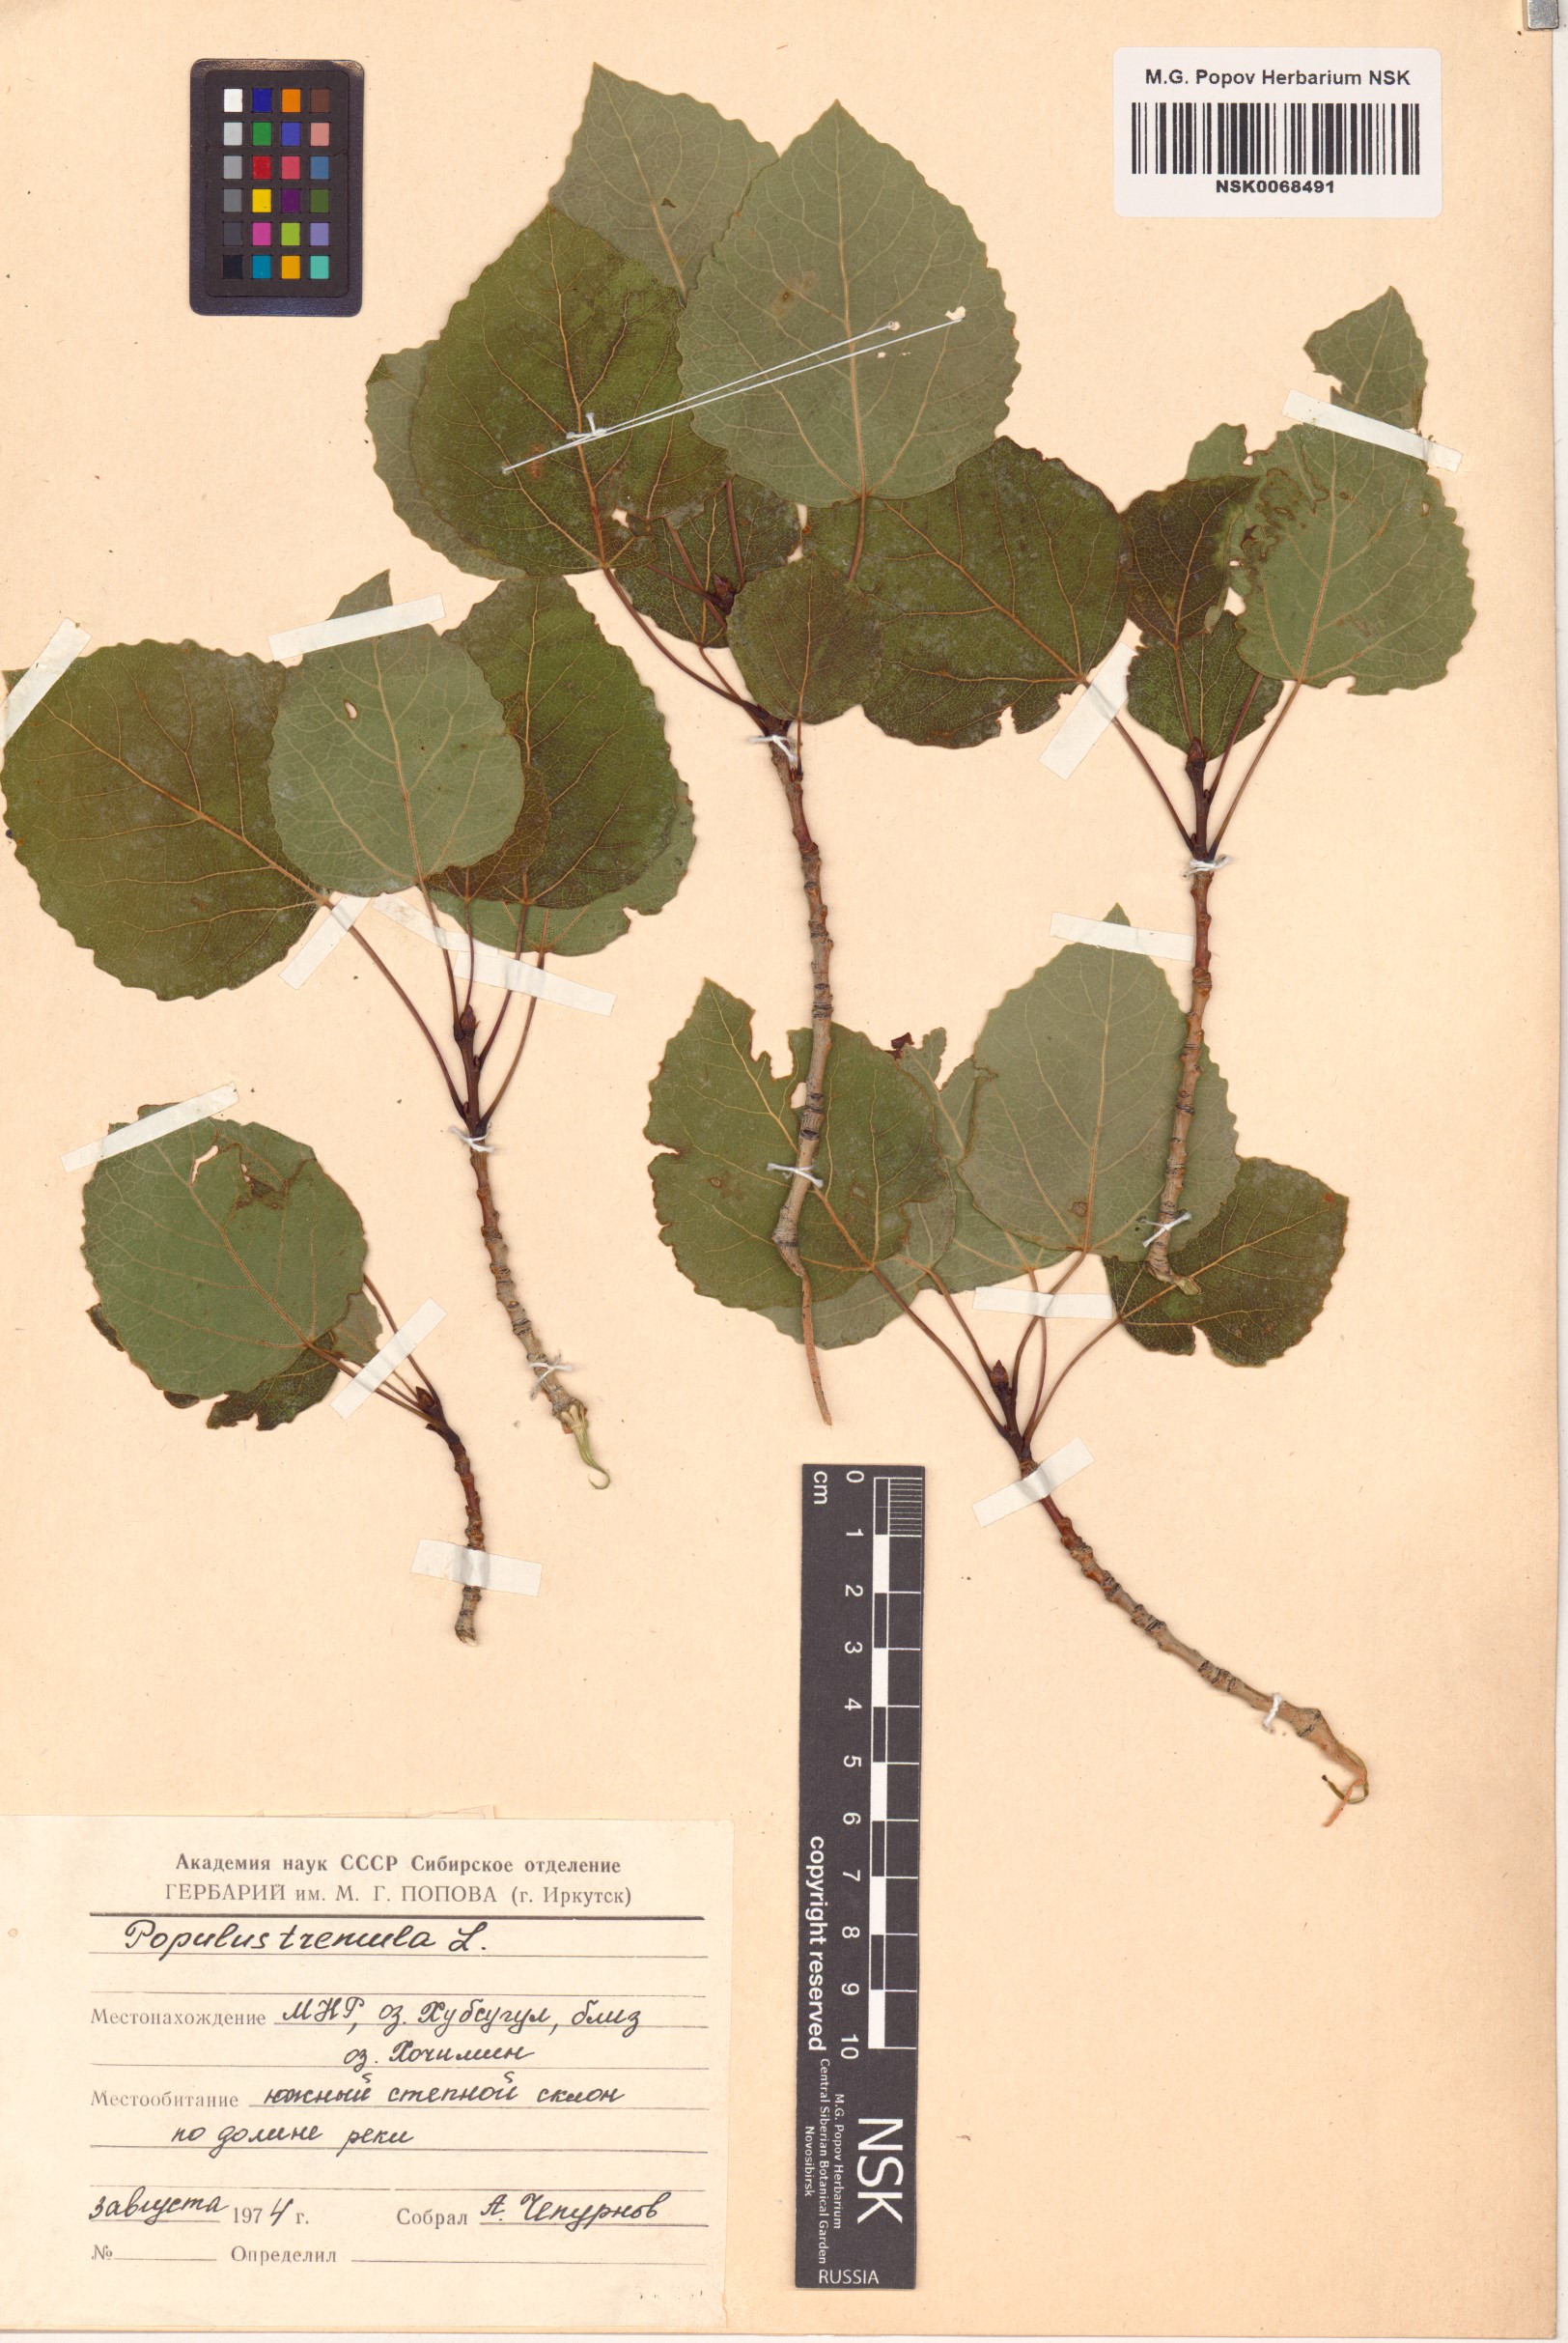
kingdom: Plantae
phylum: Tracheophyta
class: Magnoliopsida
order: Malpighiales
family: Salicaceae
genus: Populus
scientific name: Populus tremula
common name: European aspen
